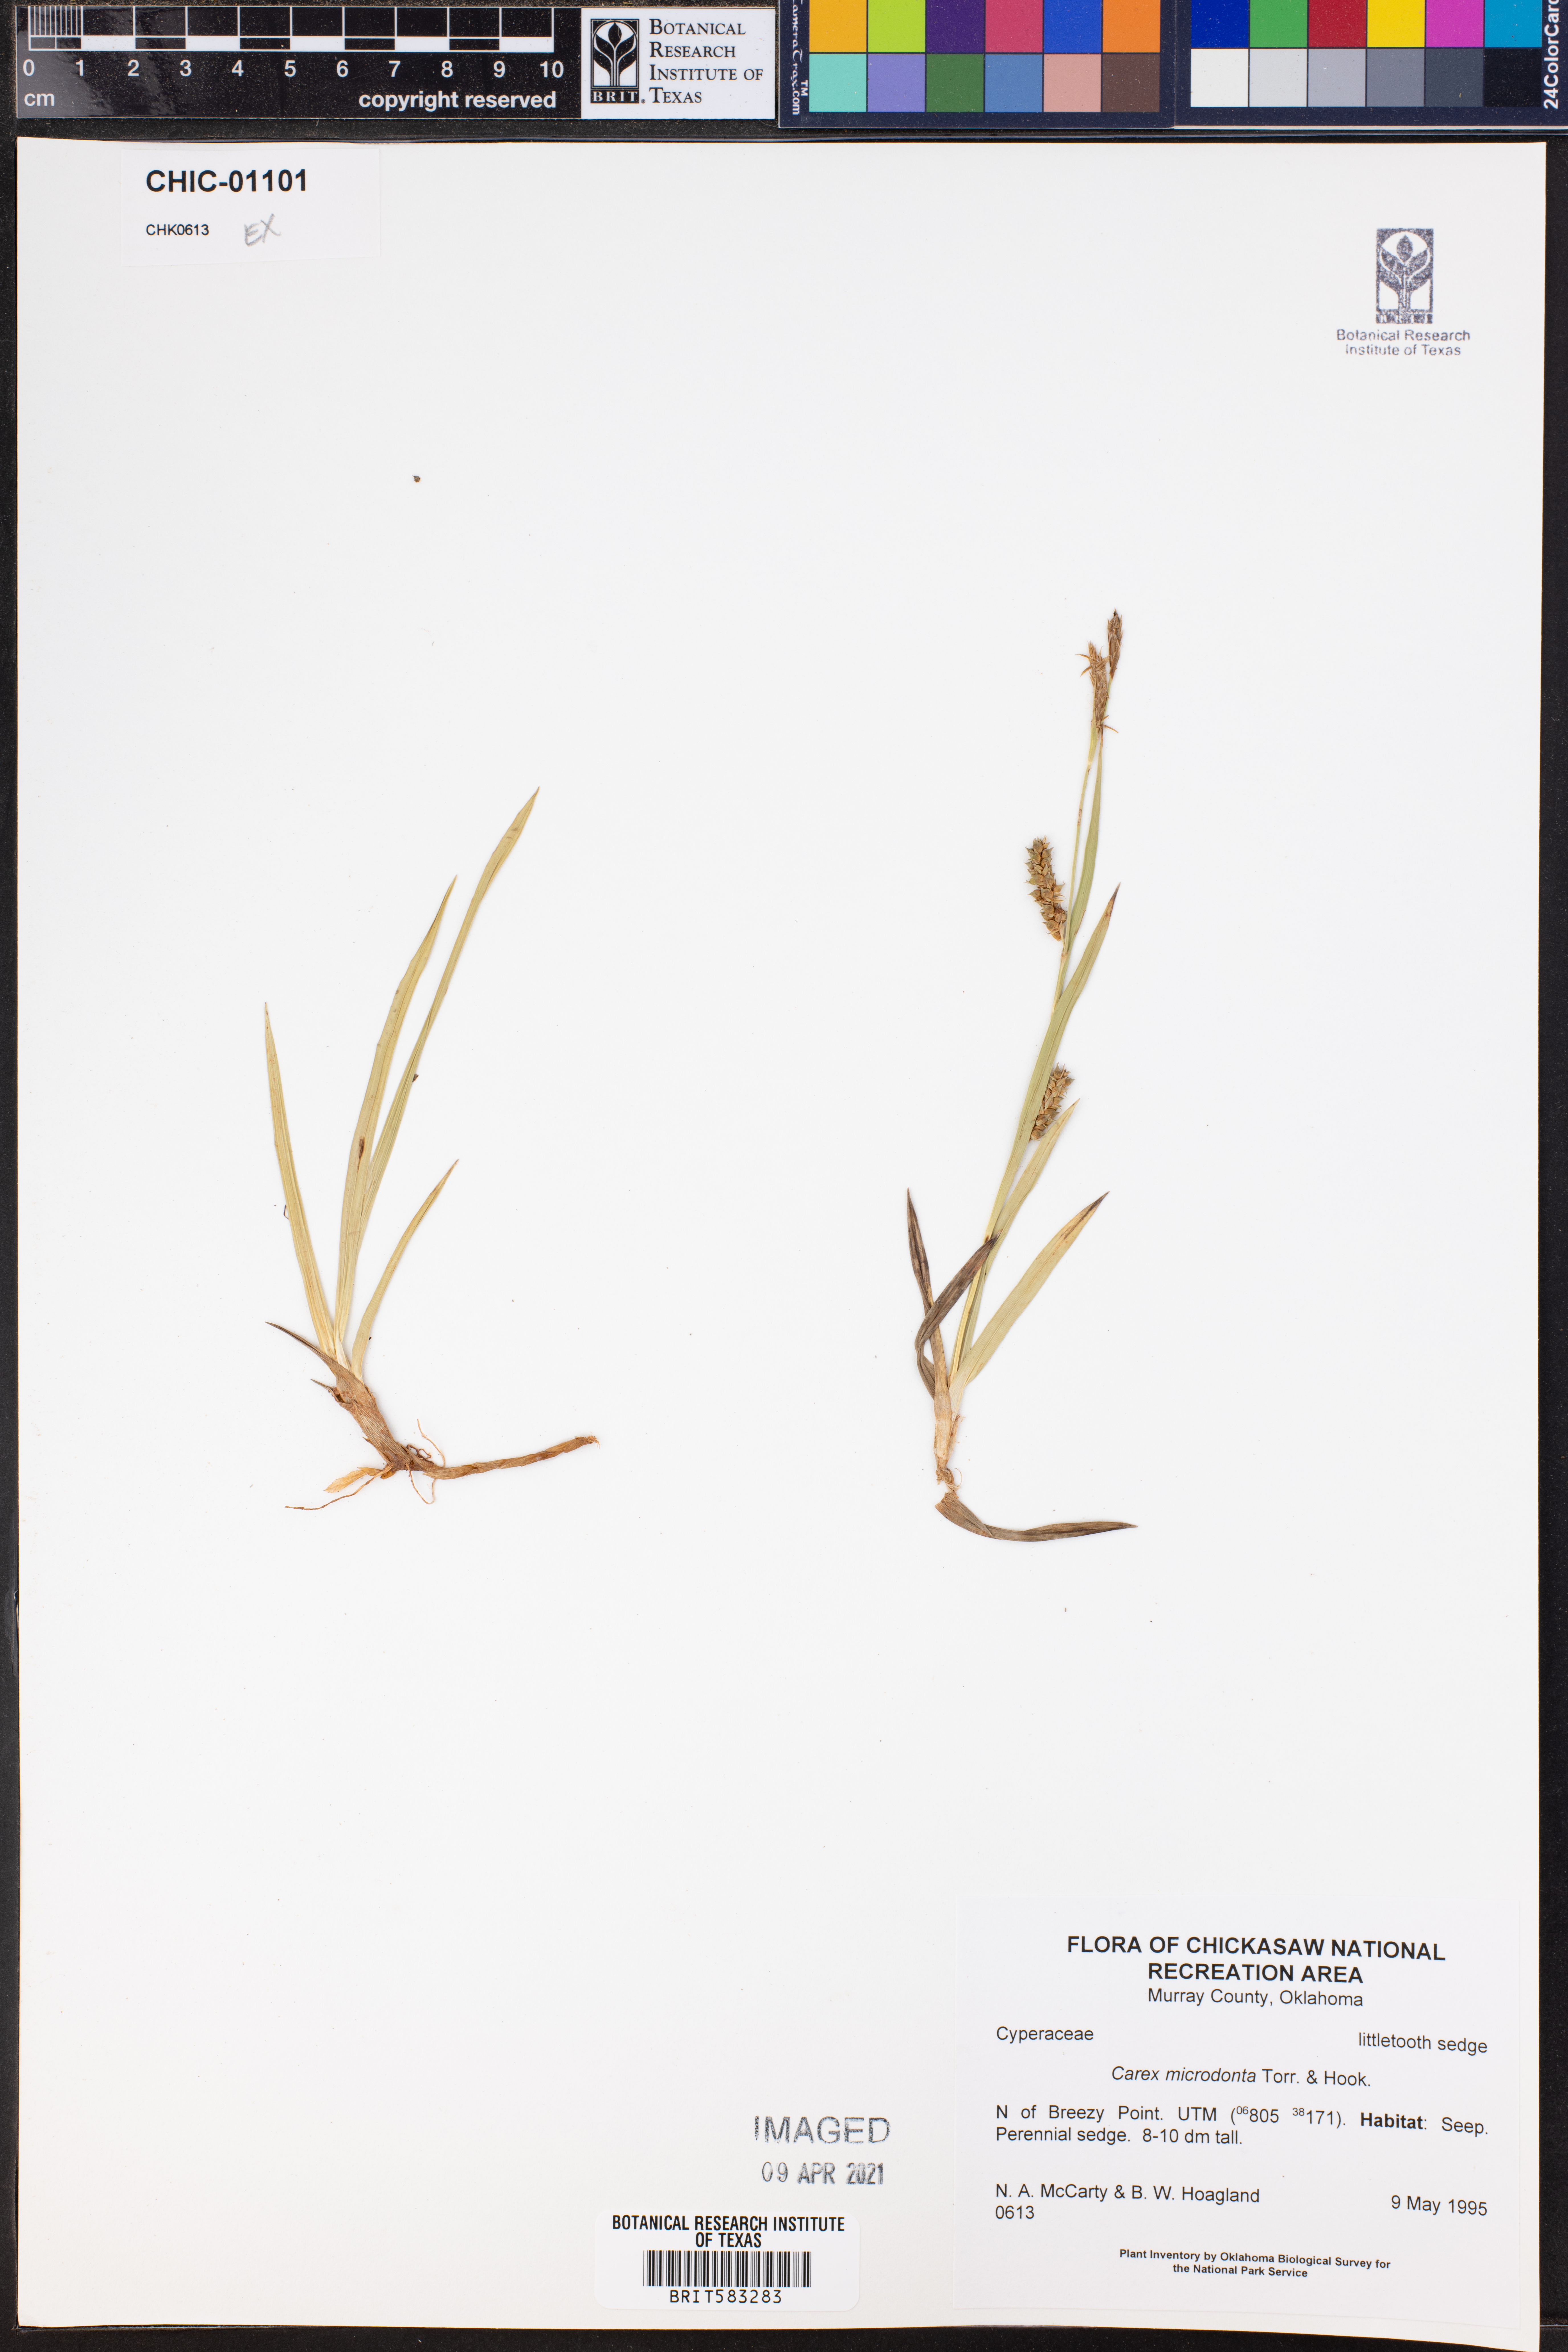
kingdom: Plantae
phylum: Tracheophyta
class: Liliopsida
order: Poales
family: Cyperaceae
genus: Carex
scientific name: Carex microdonta
